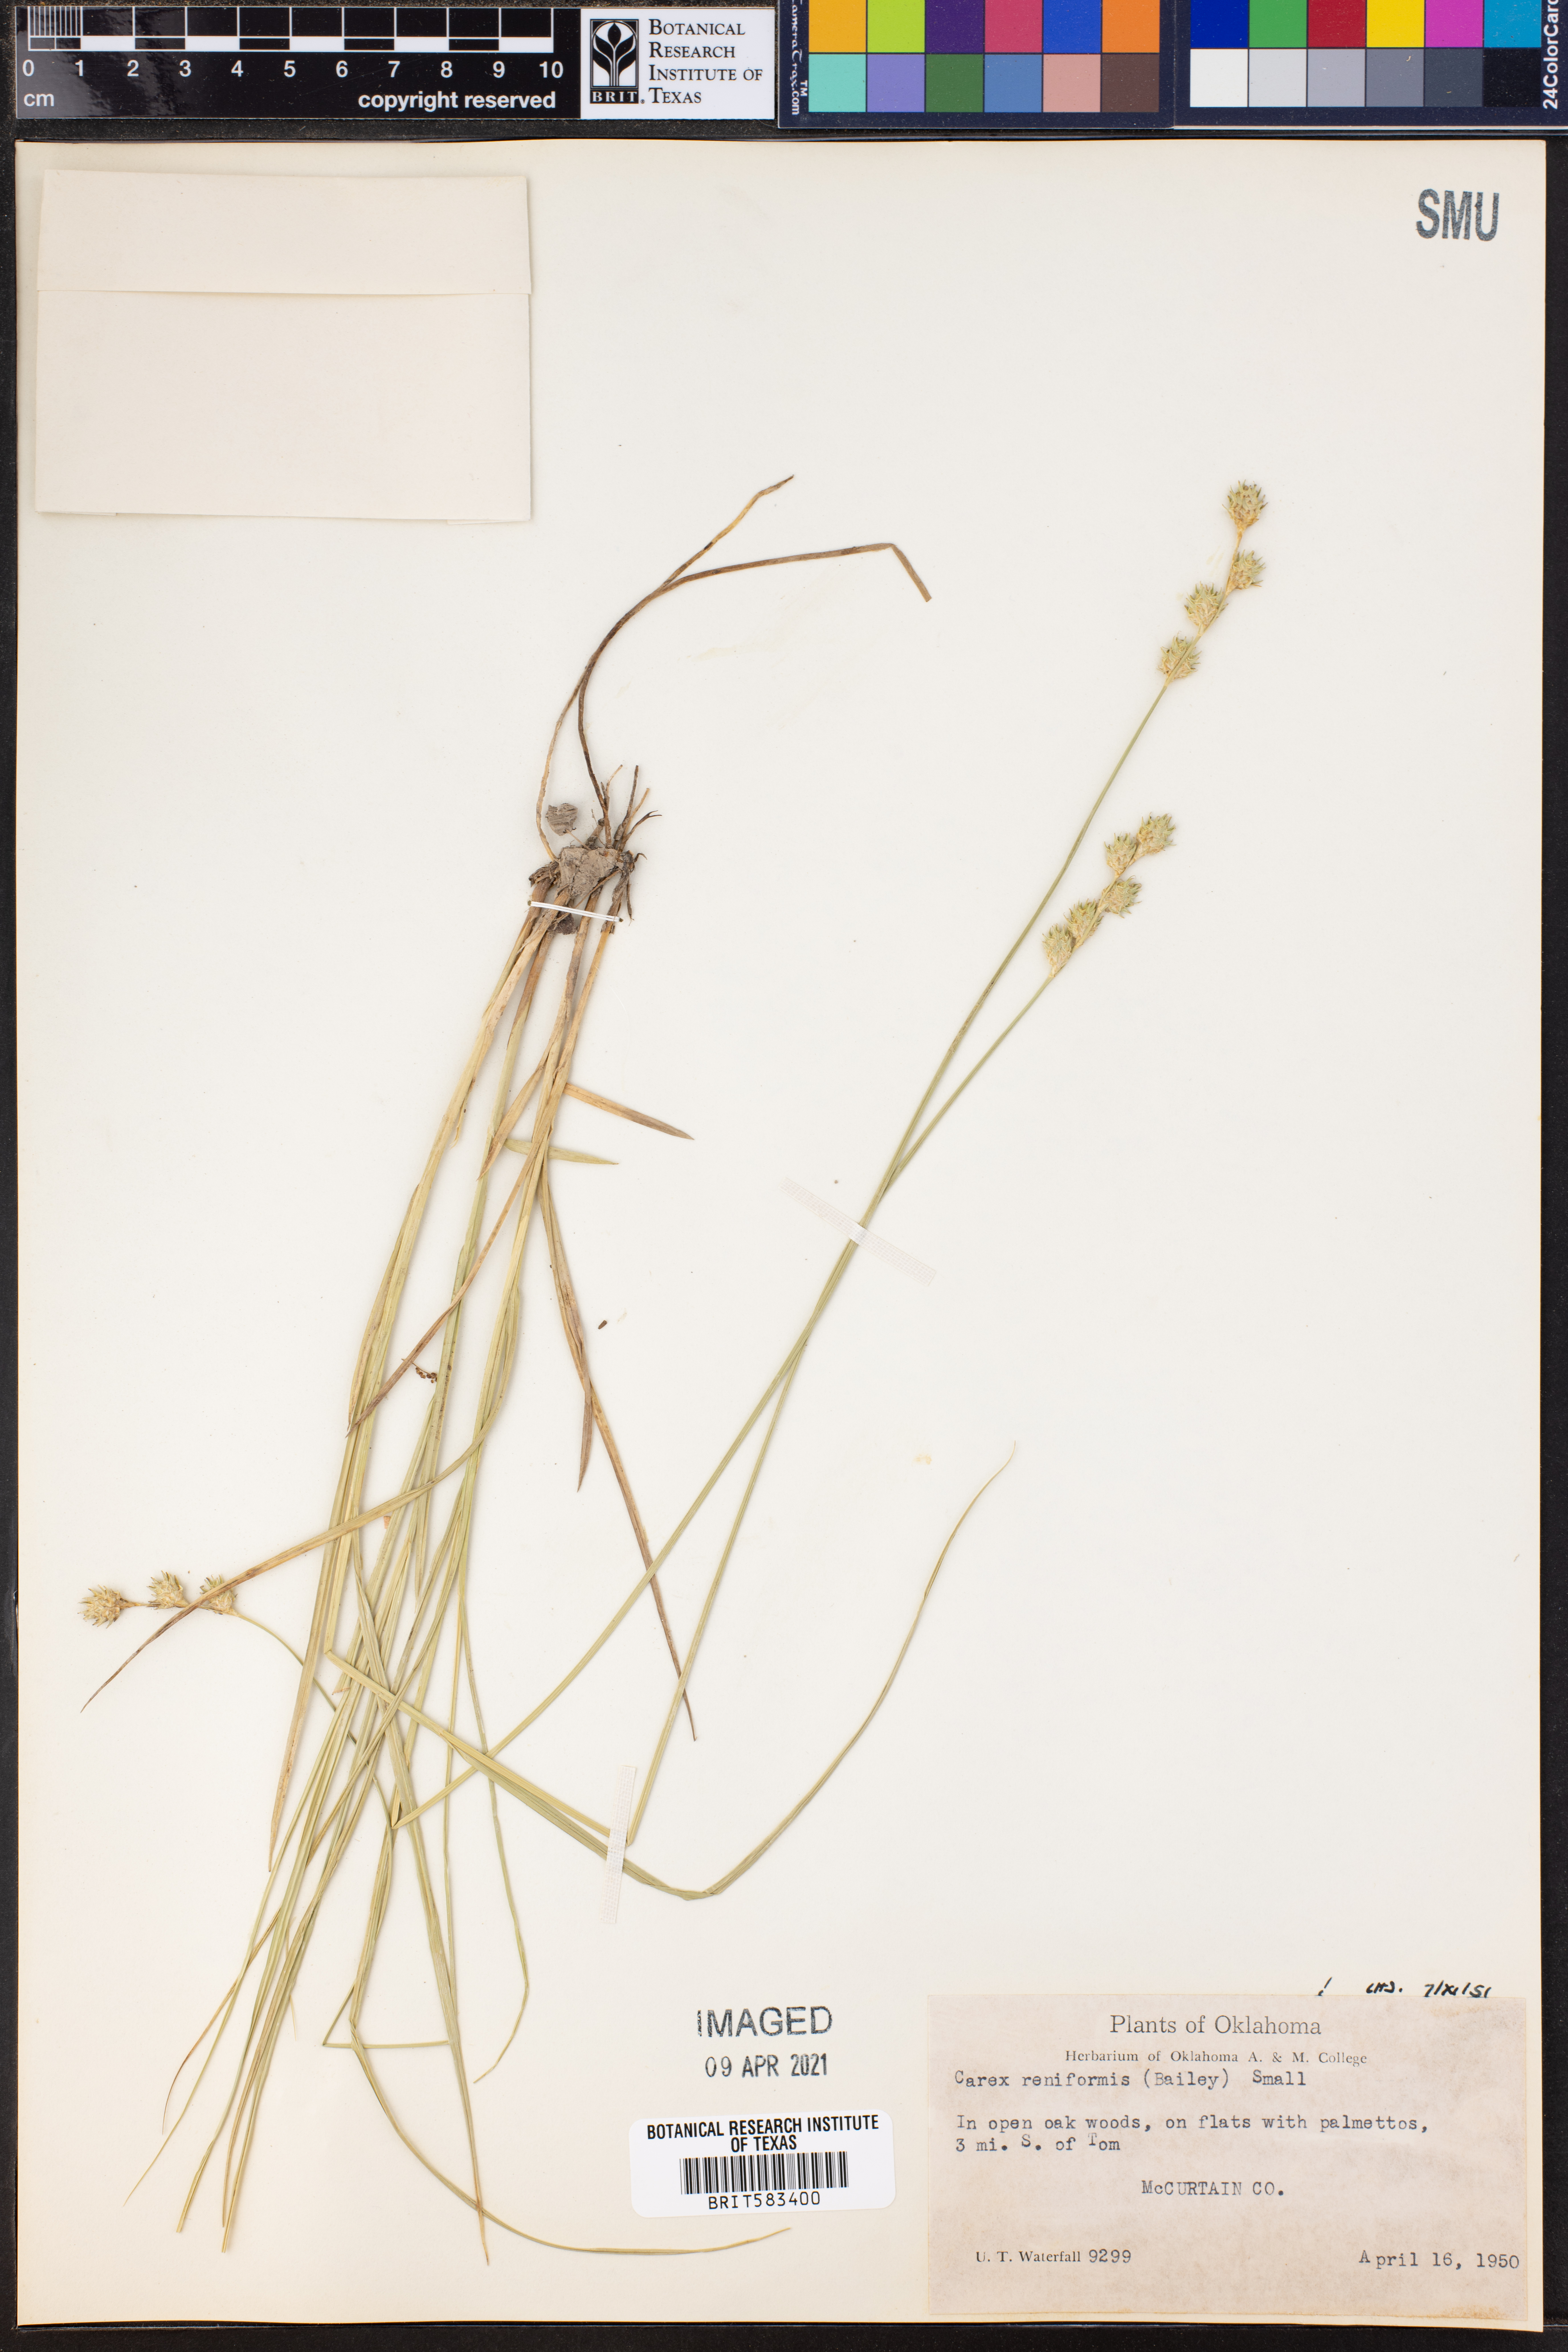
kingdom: Plantae
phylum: Tracheophyta
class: Liliopsida
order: Poales
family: Cyperaceae
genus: Carex
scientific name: Carex reniformis
